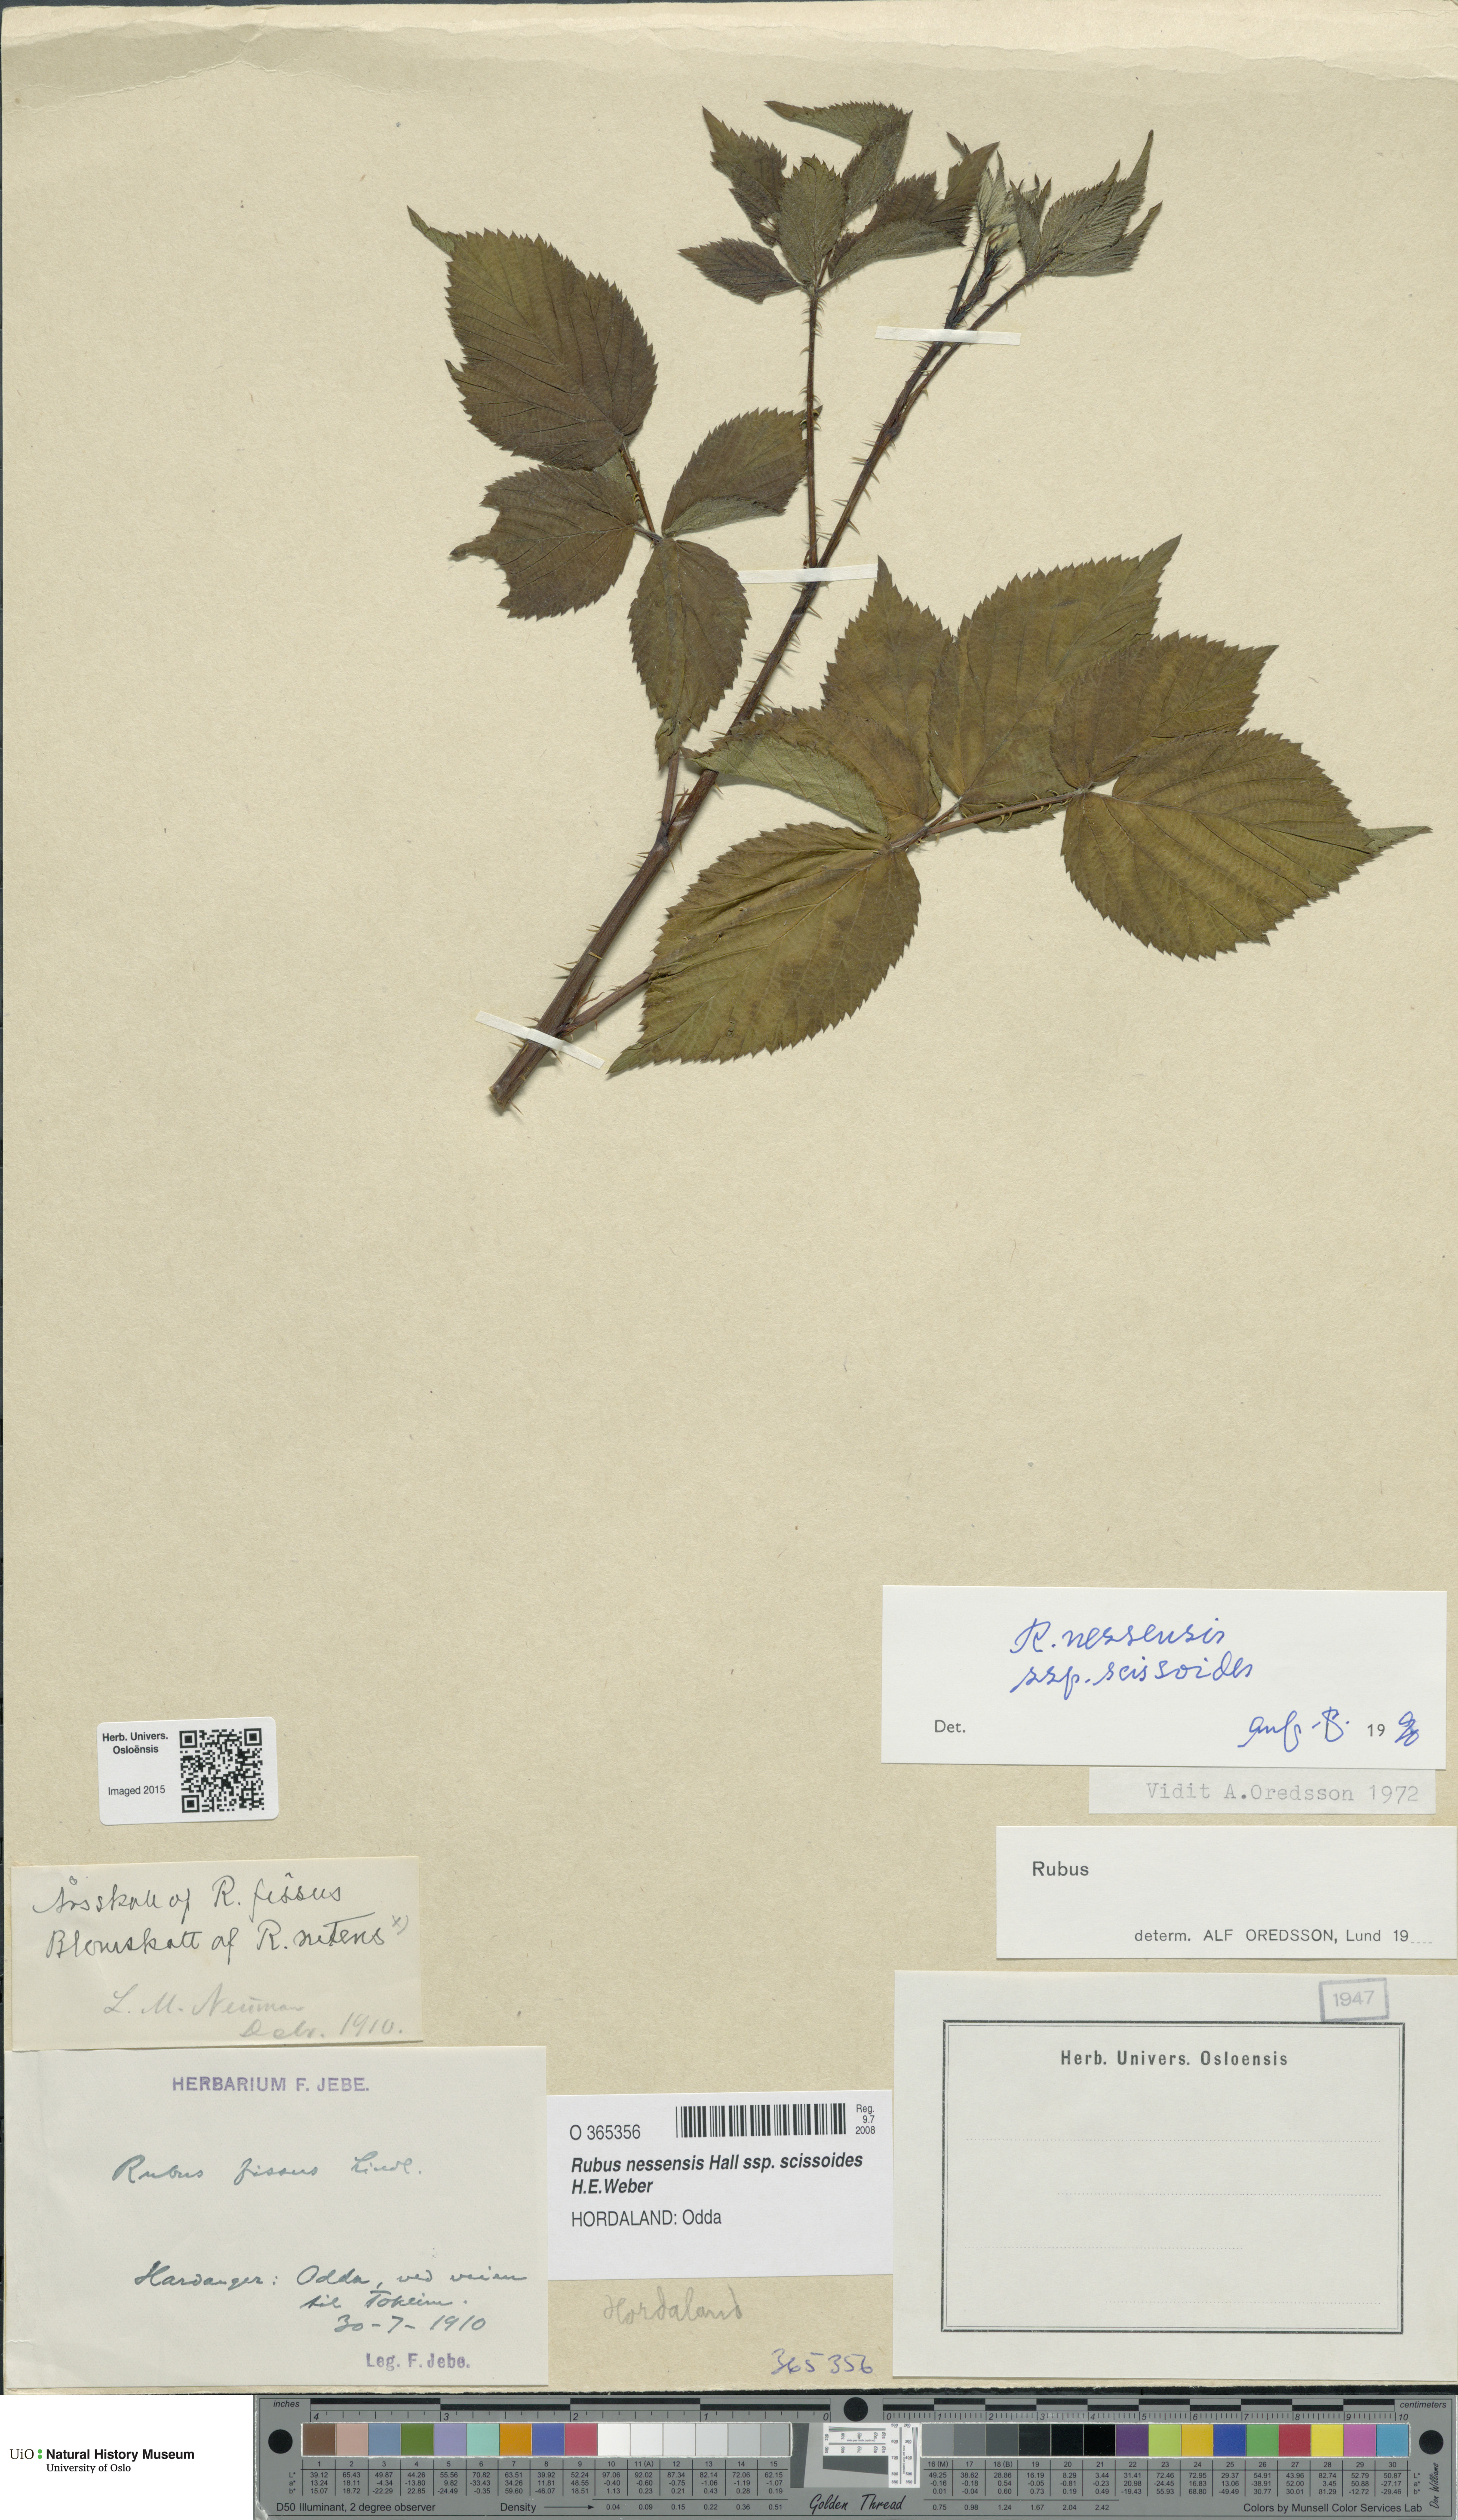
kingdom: Plantae
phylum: Tracheophyta
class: Magnoliopsida
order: Rosales
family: Rosaceae
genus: Rubus
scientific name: Rubus scissus
